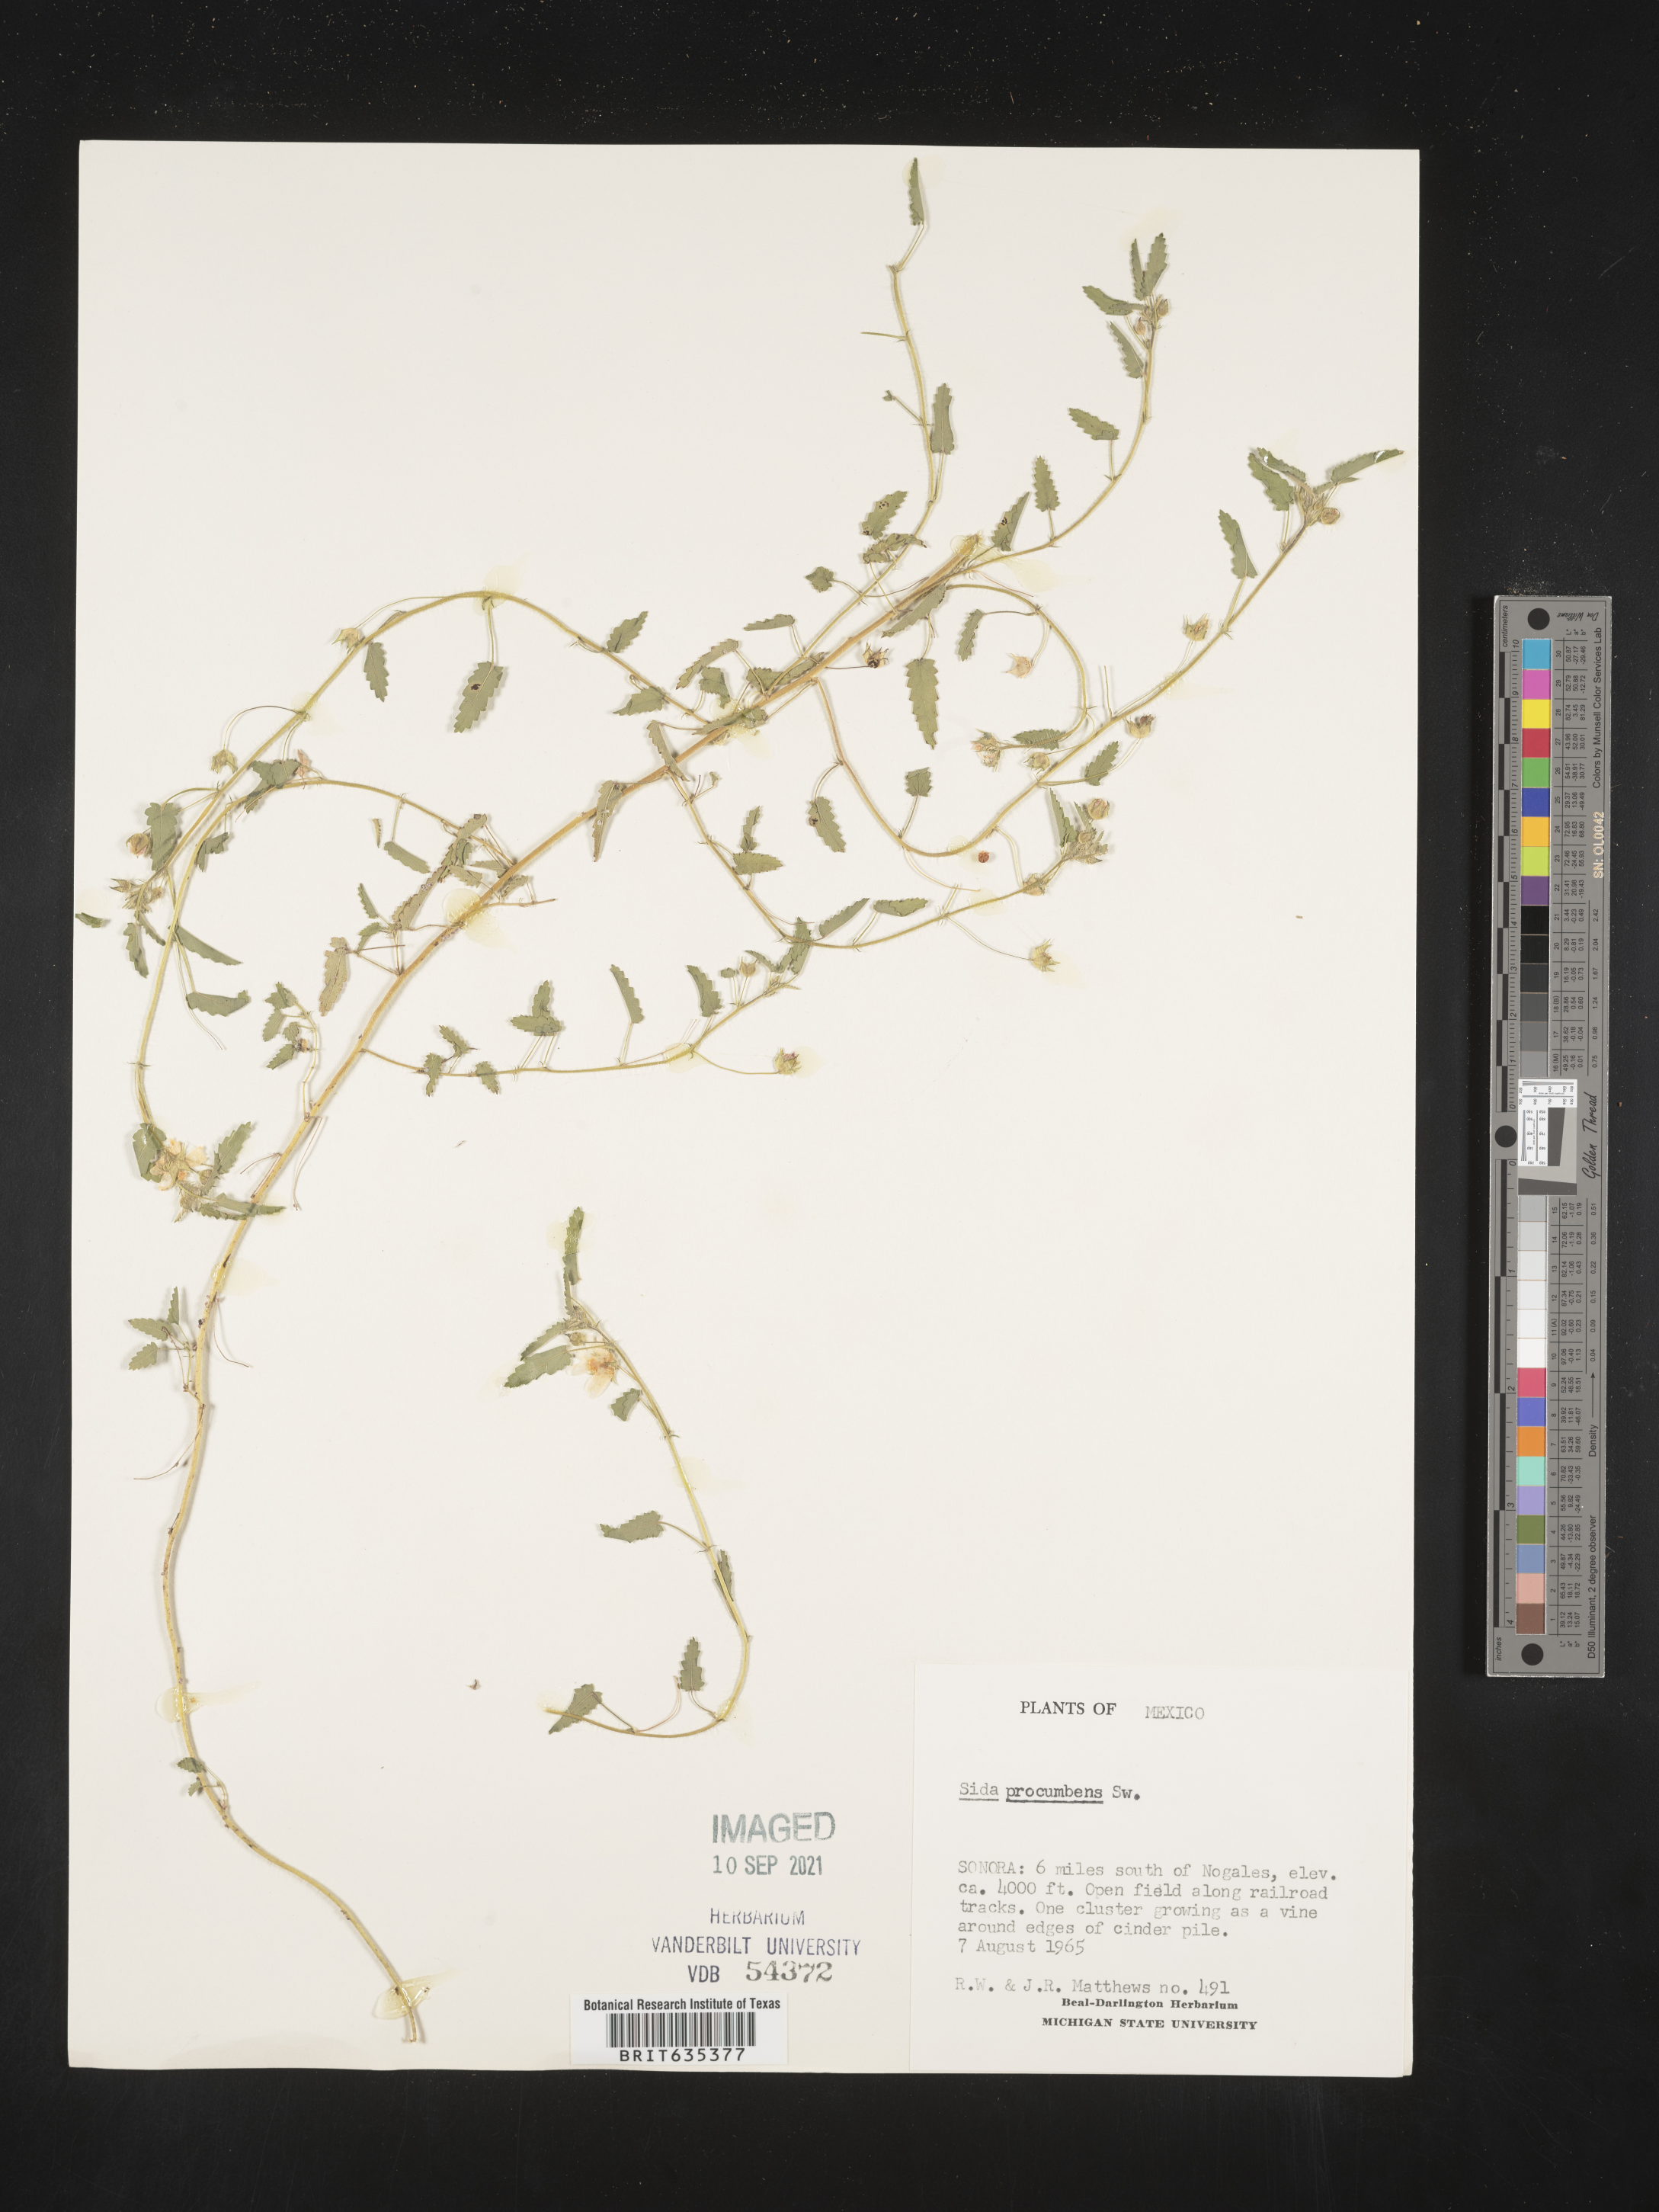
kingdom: Plantae
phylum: Tracheophyta
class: Magnoliopsida
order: Malvales
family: Malvaceae
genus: Sida
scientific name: Sida
